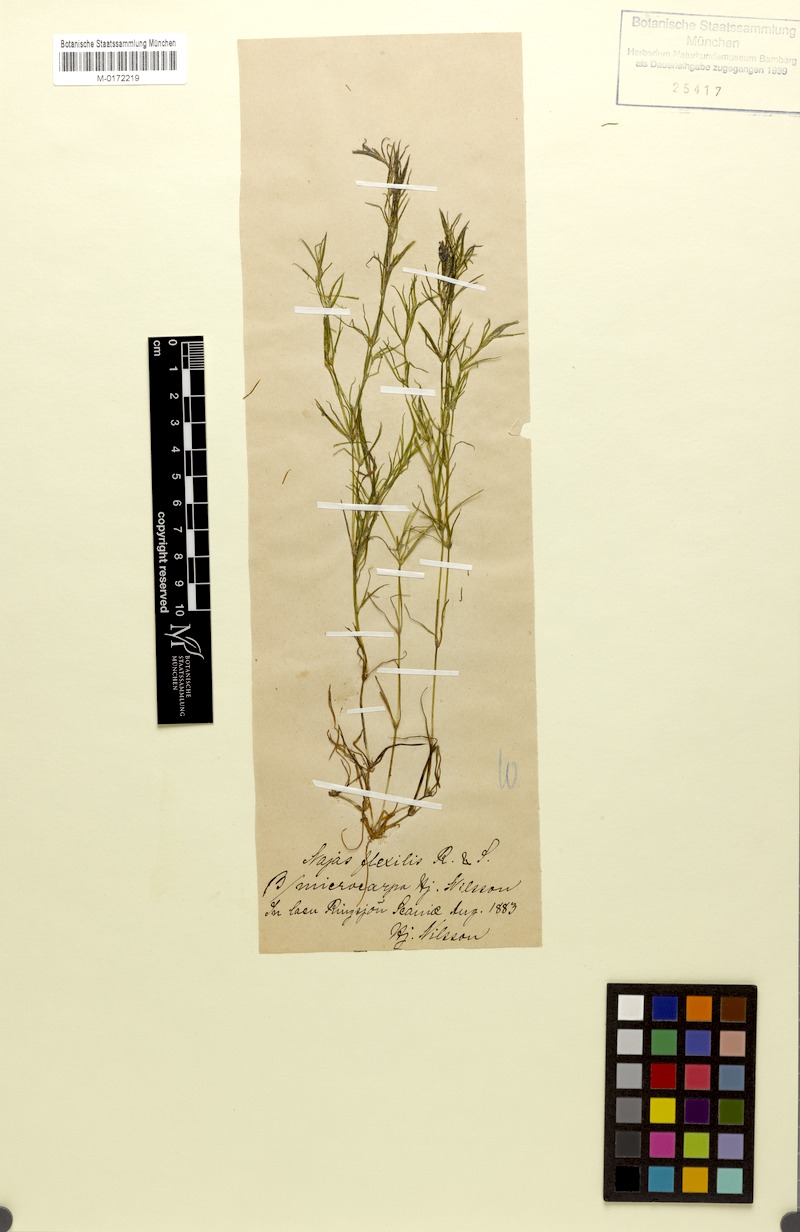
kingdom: Plantae
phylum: Tracheophyta
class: Liliopsida
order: Alismatales
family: Hydrocharitaceae
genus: Najas
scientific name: Najas flexilis
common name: Slender naiad
